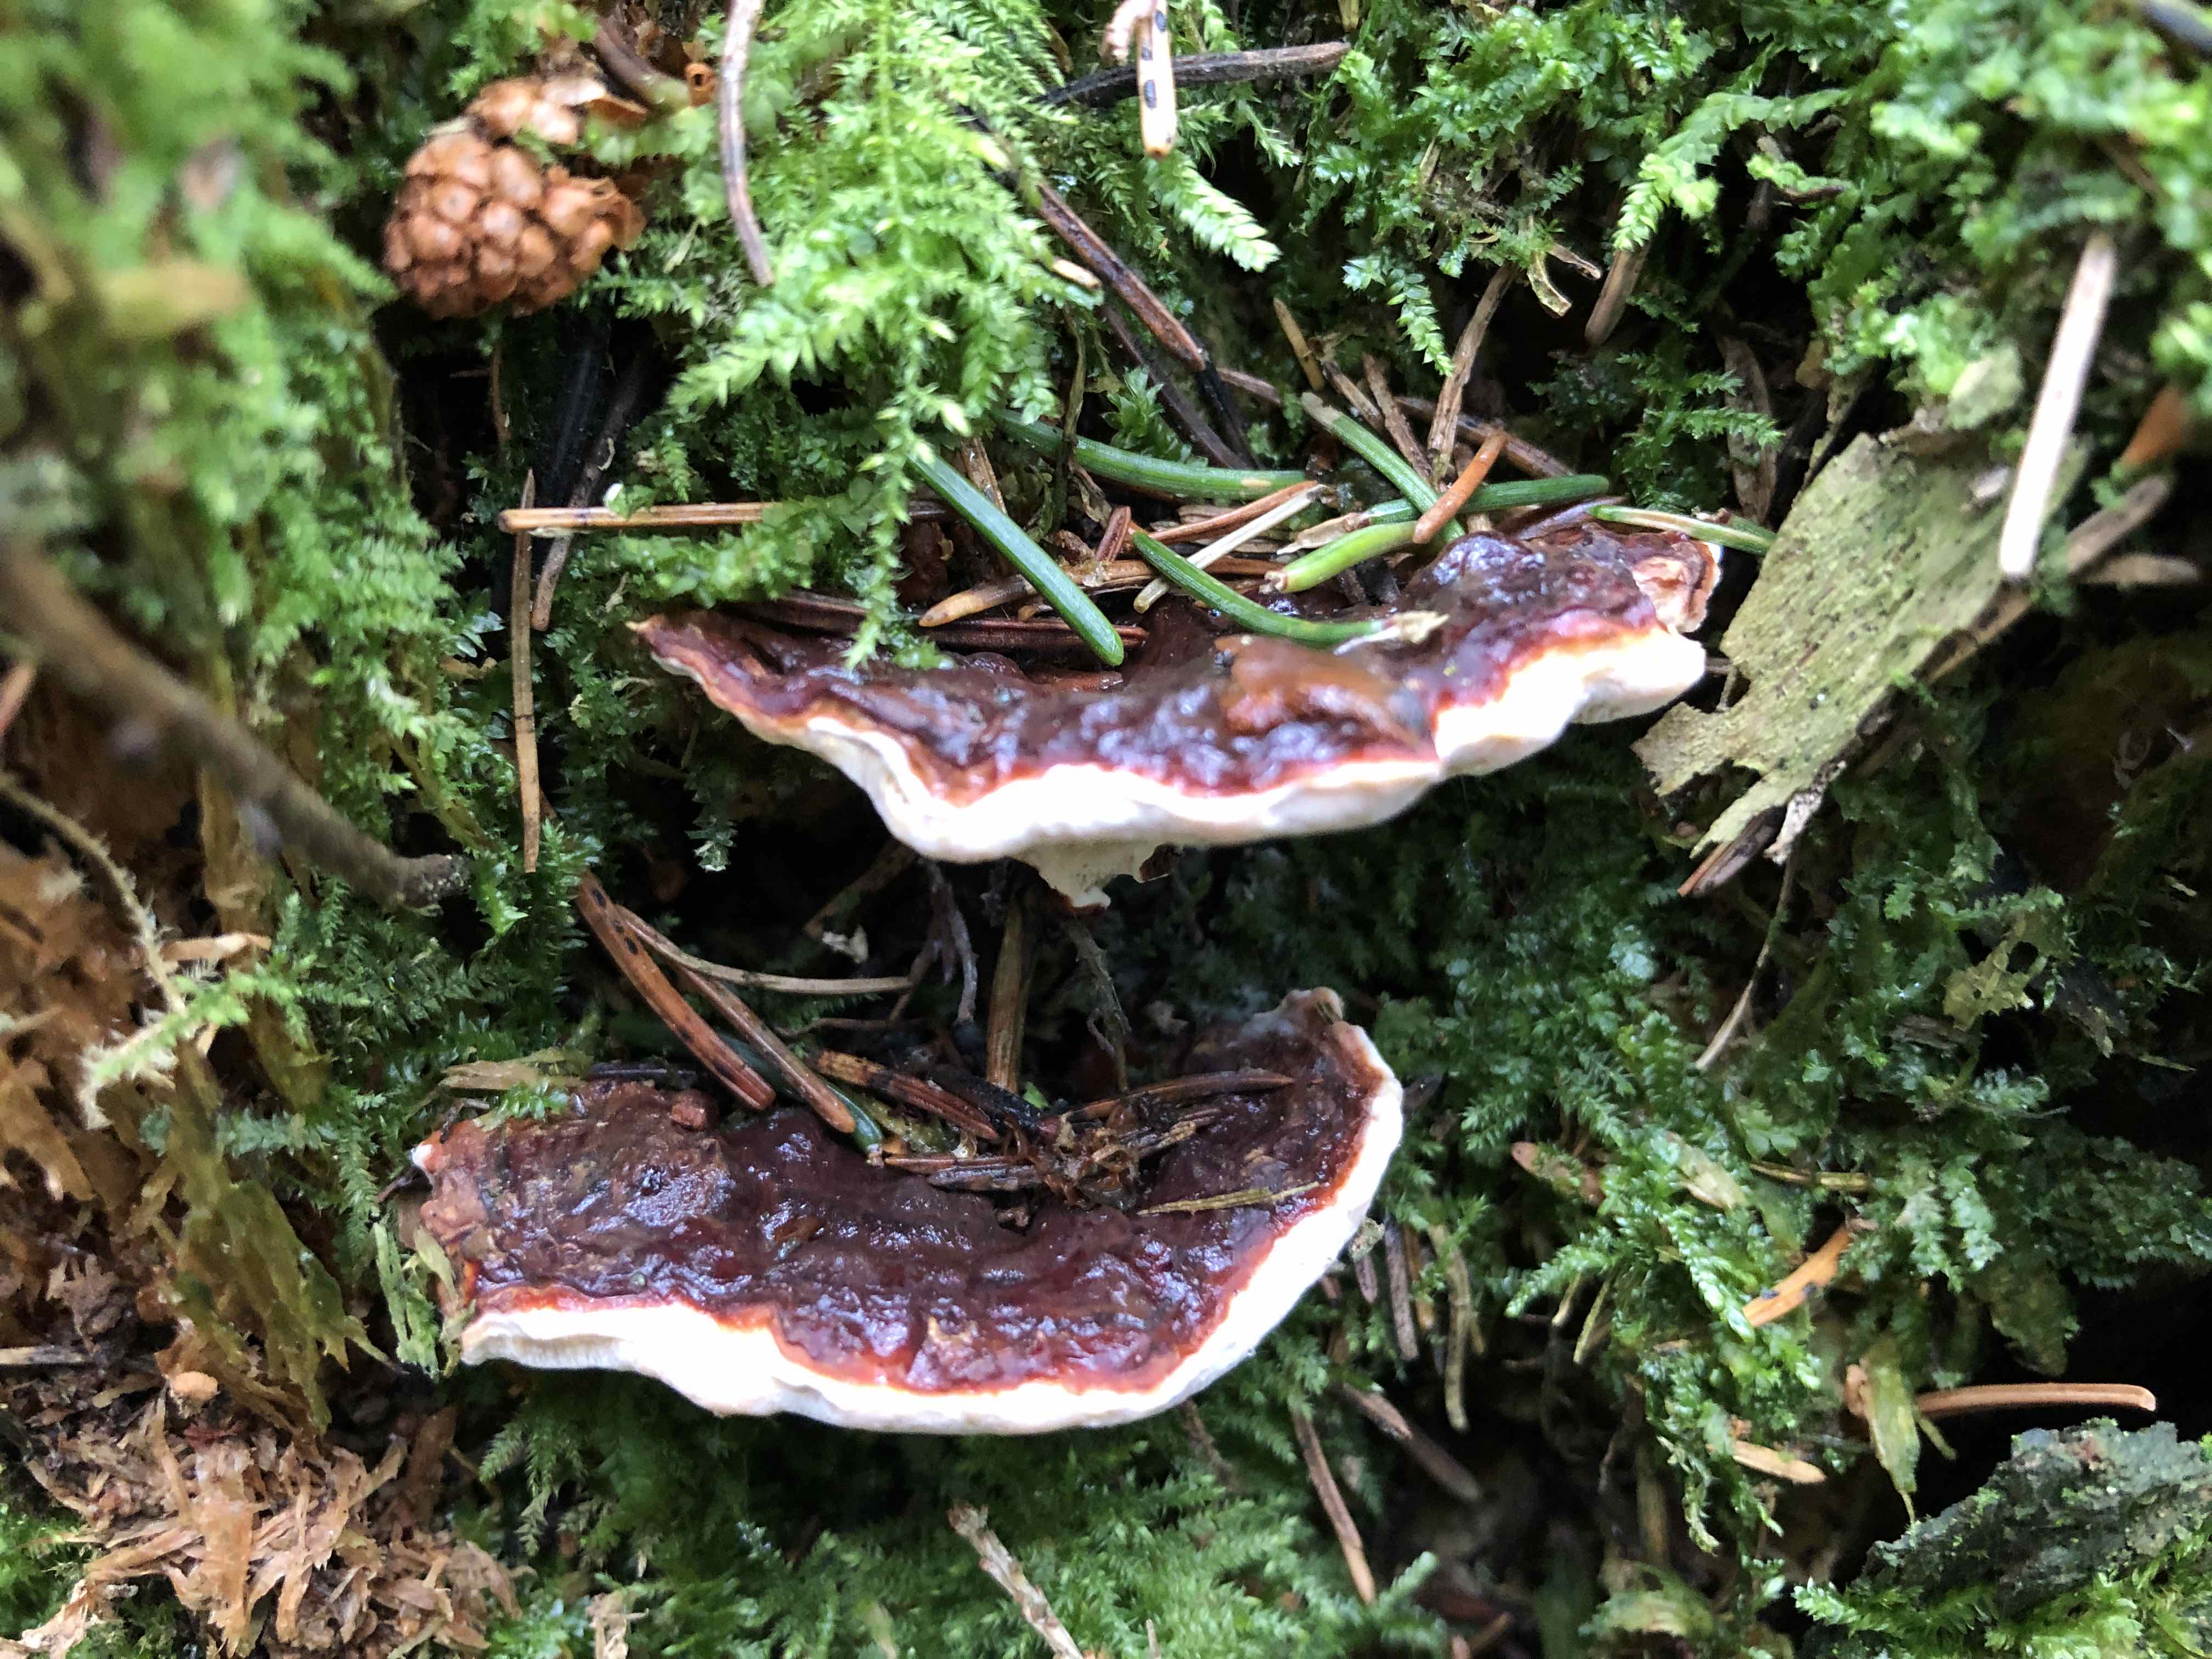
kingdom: Fungi
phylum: Basidiomycota
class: Agaricomycetes
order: Russulales
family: Bondarzewiaceae
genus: Heterobasidion
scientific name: Heterobasidion annosum
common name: almindelig rodfordærver
